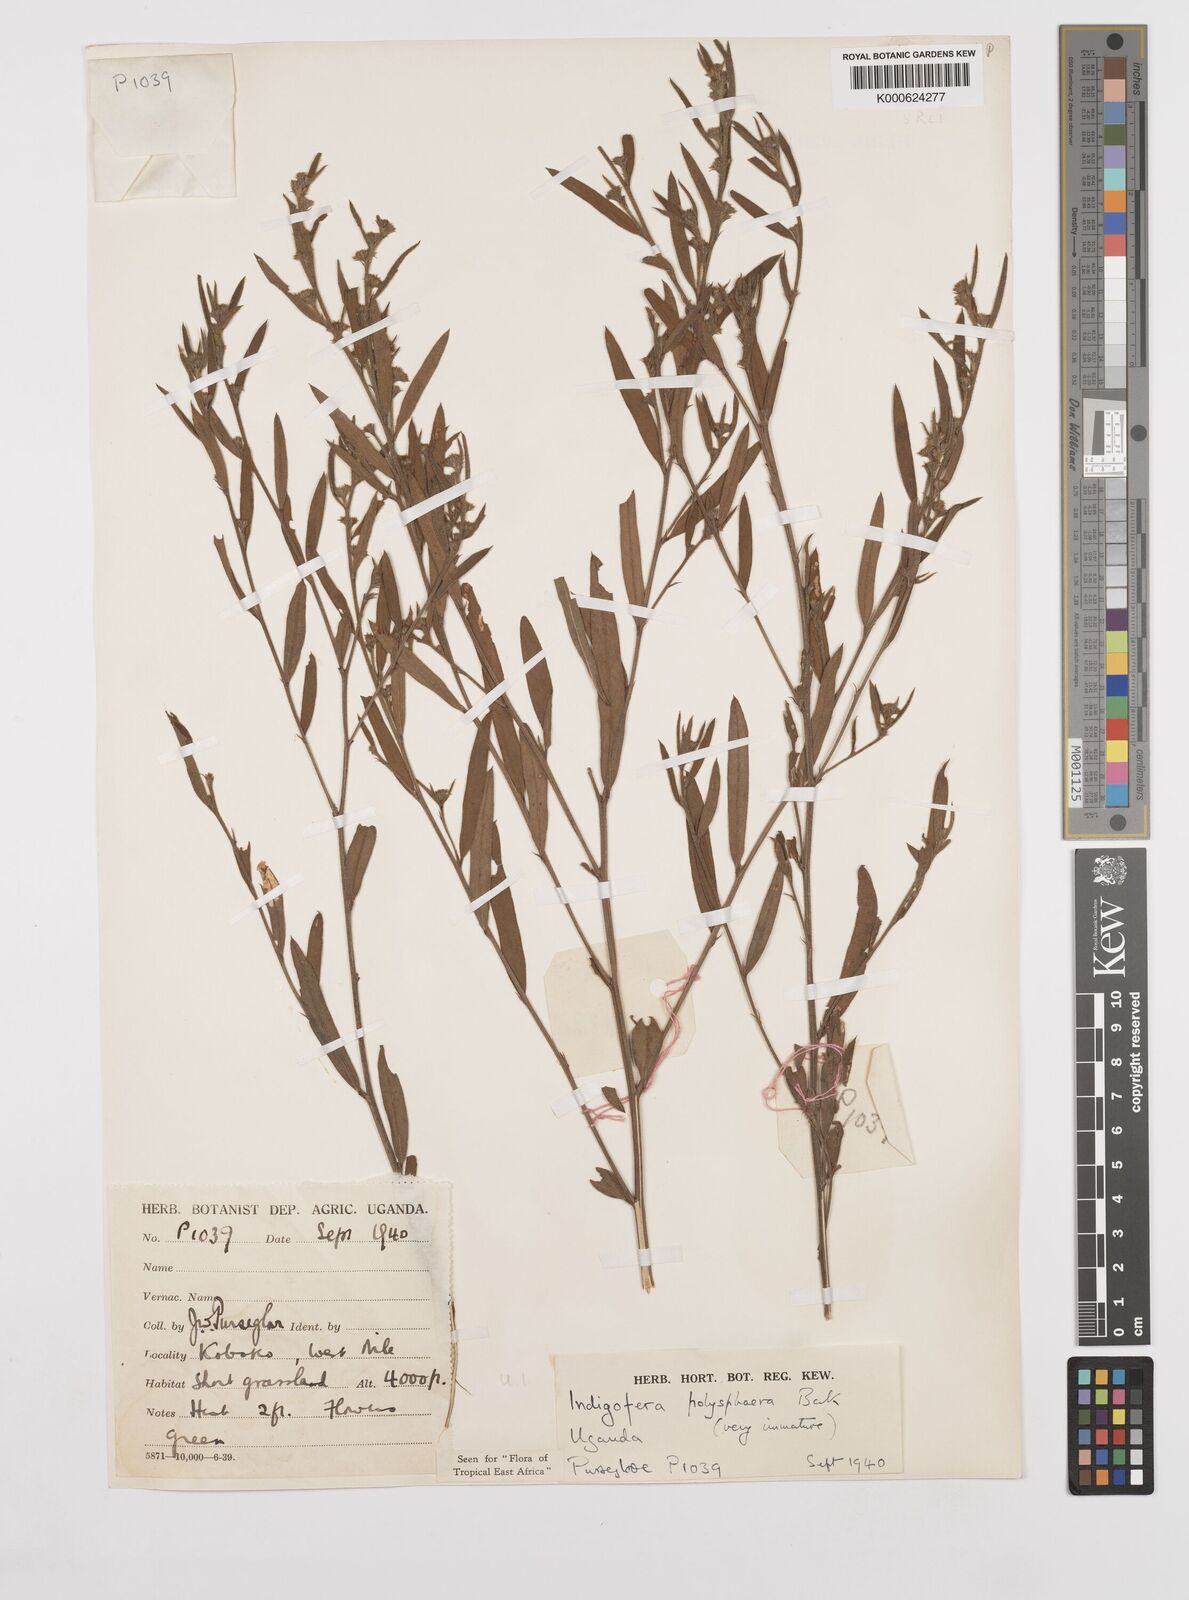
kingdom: Plantae
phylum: Tracheophyta
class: Magnoliopsida
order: Fabales
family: Fabaceae
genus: Indigofera
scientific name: Indigofera polysphaera
